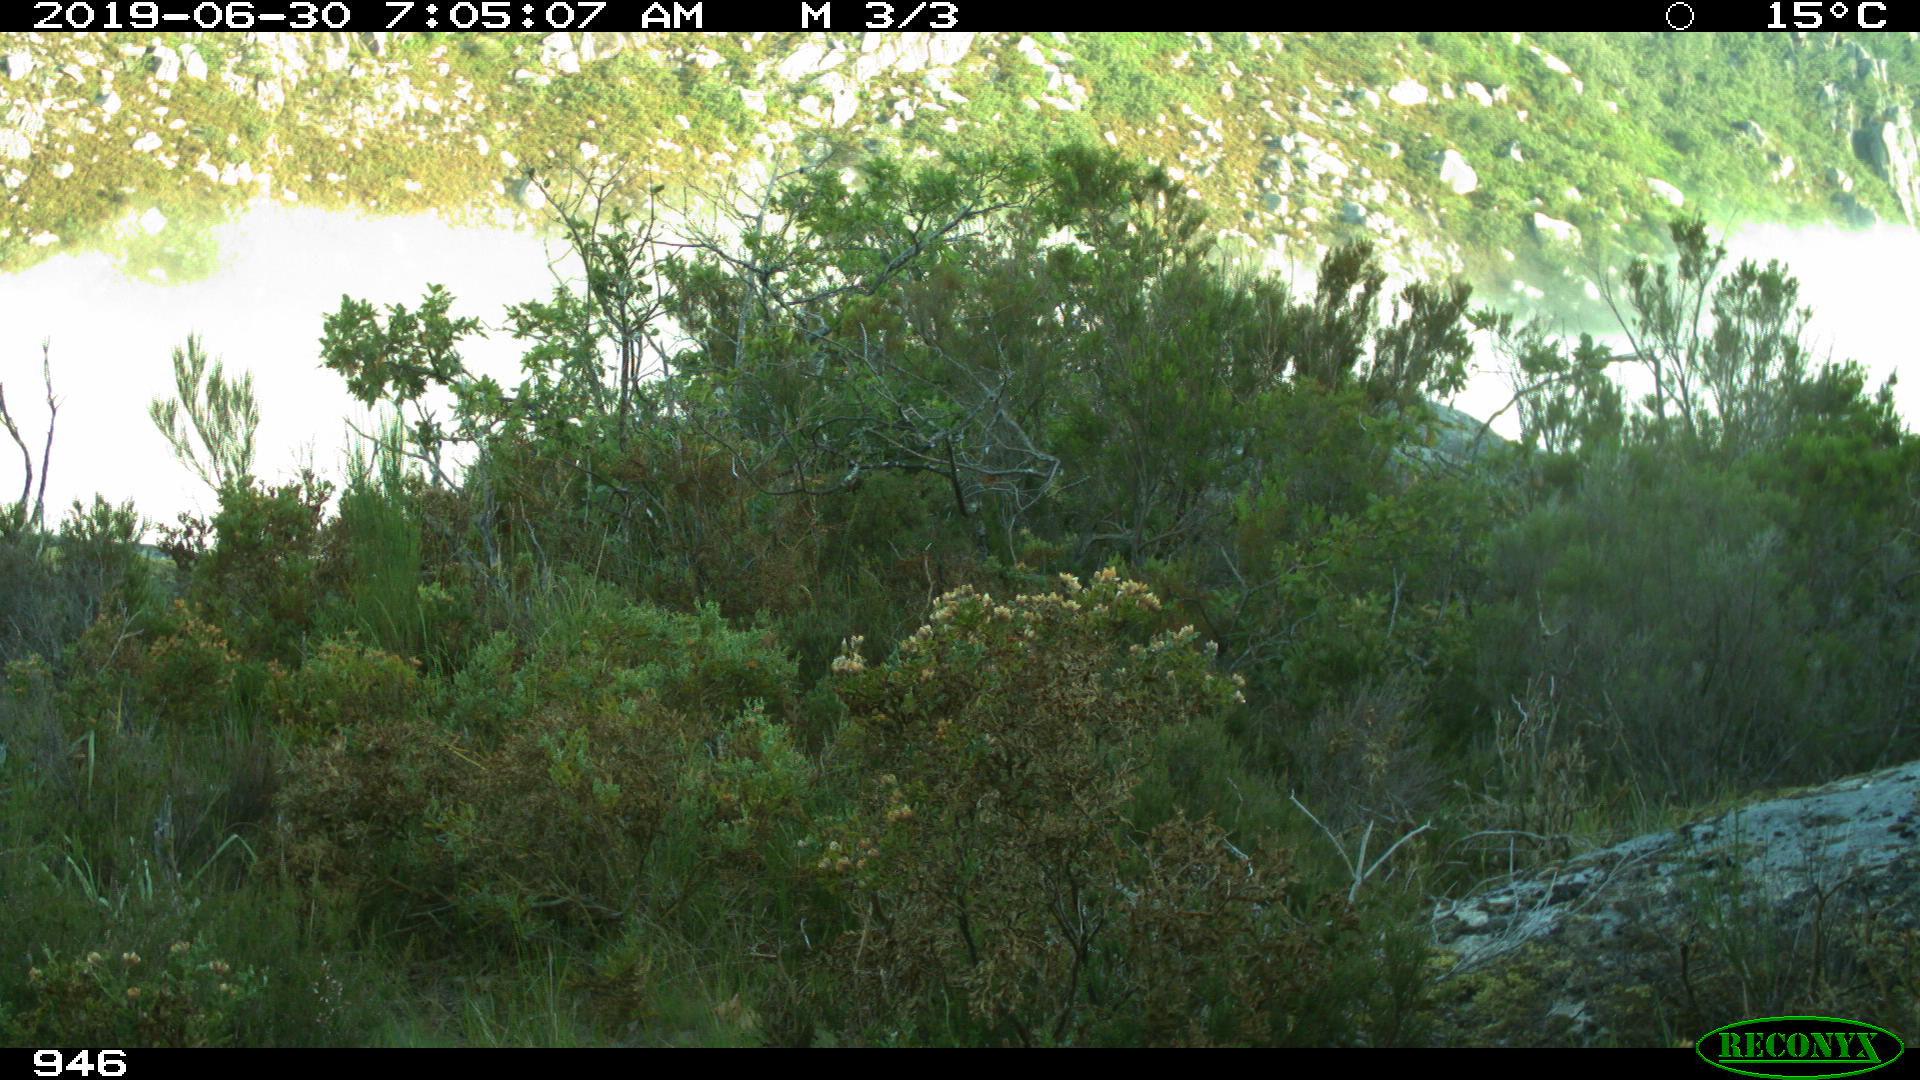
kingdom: Animalia
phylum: Chordata
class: Mammalia
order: Artiodactyla
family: Cervidae
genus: Capreolus
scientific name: Capreolus capreolus
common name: Western roe deer
